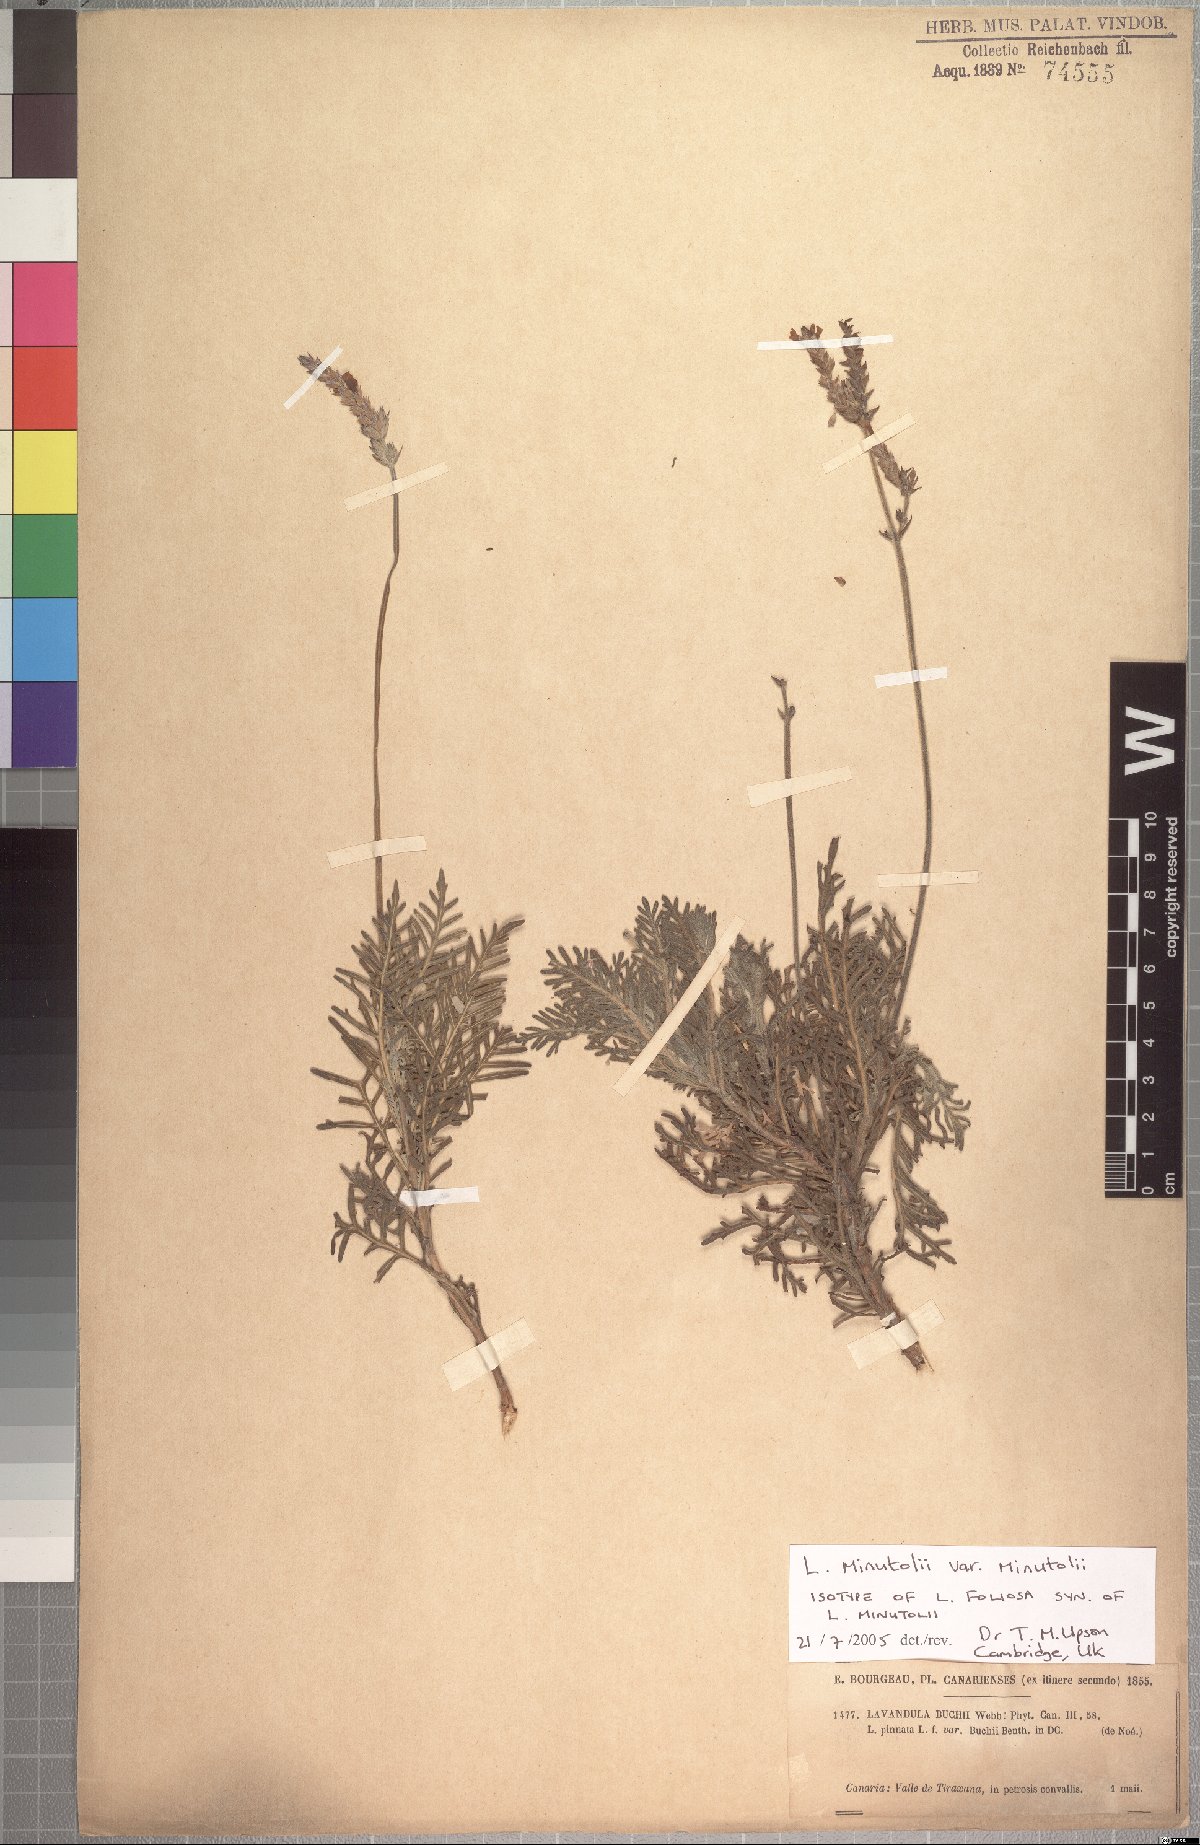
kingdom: Plantae
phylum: Tracheophyta
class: Magnoliopsida
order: Lamiales
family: Lamiaceae
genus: Lavandula
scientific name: Lavandula minutolii
